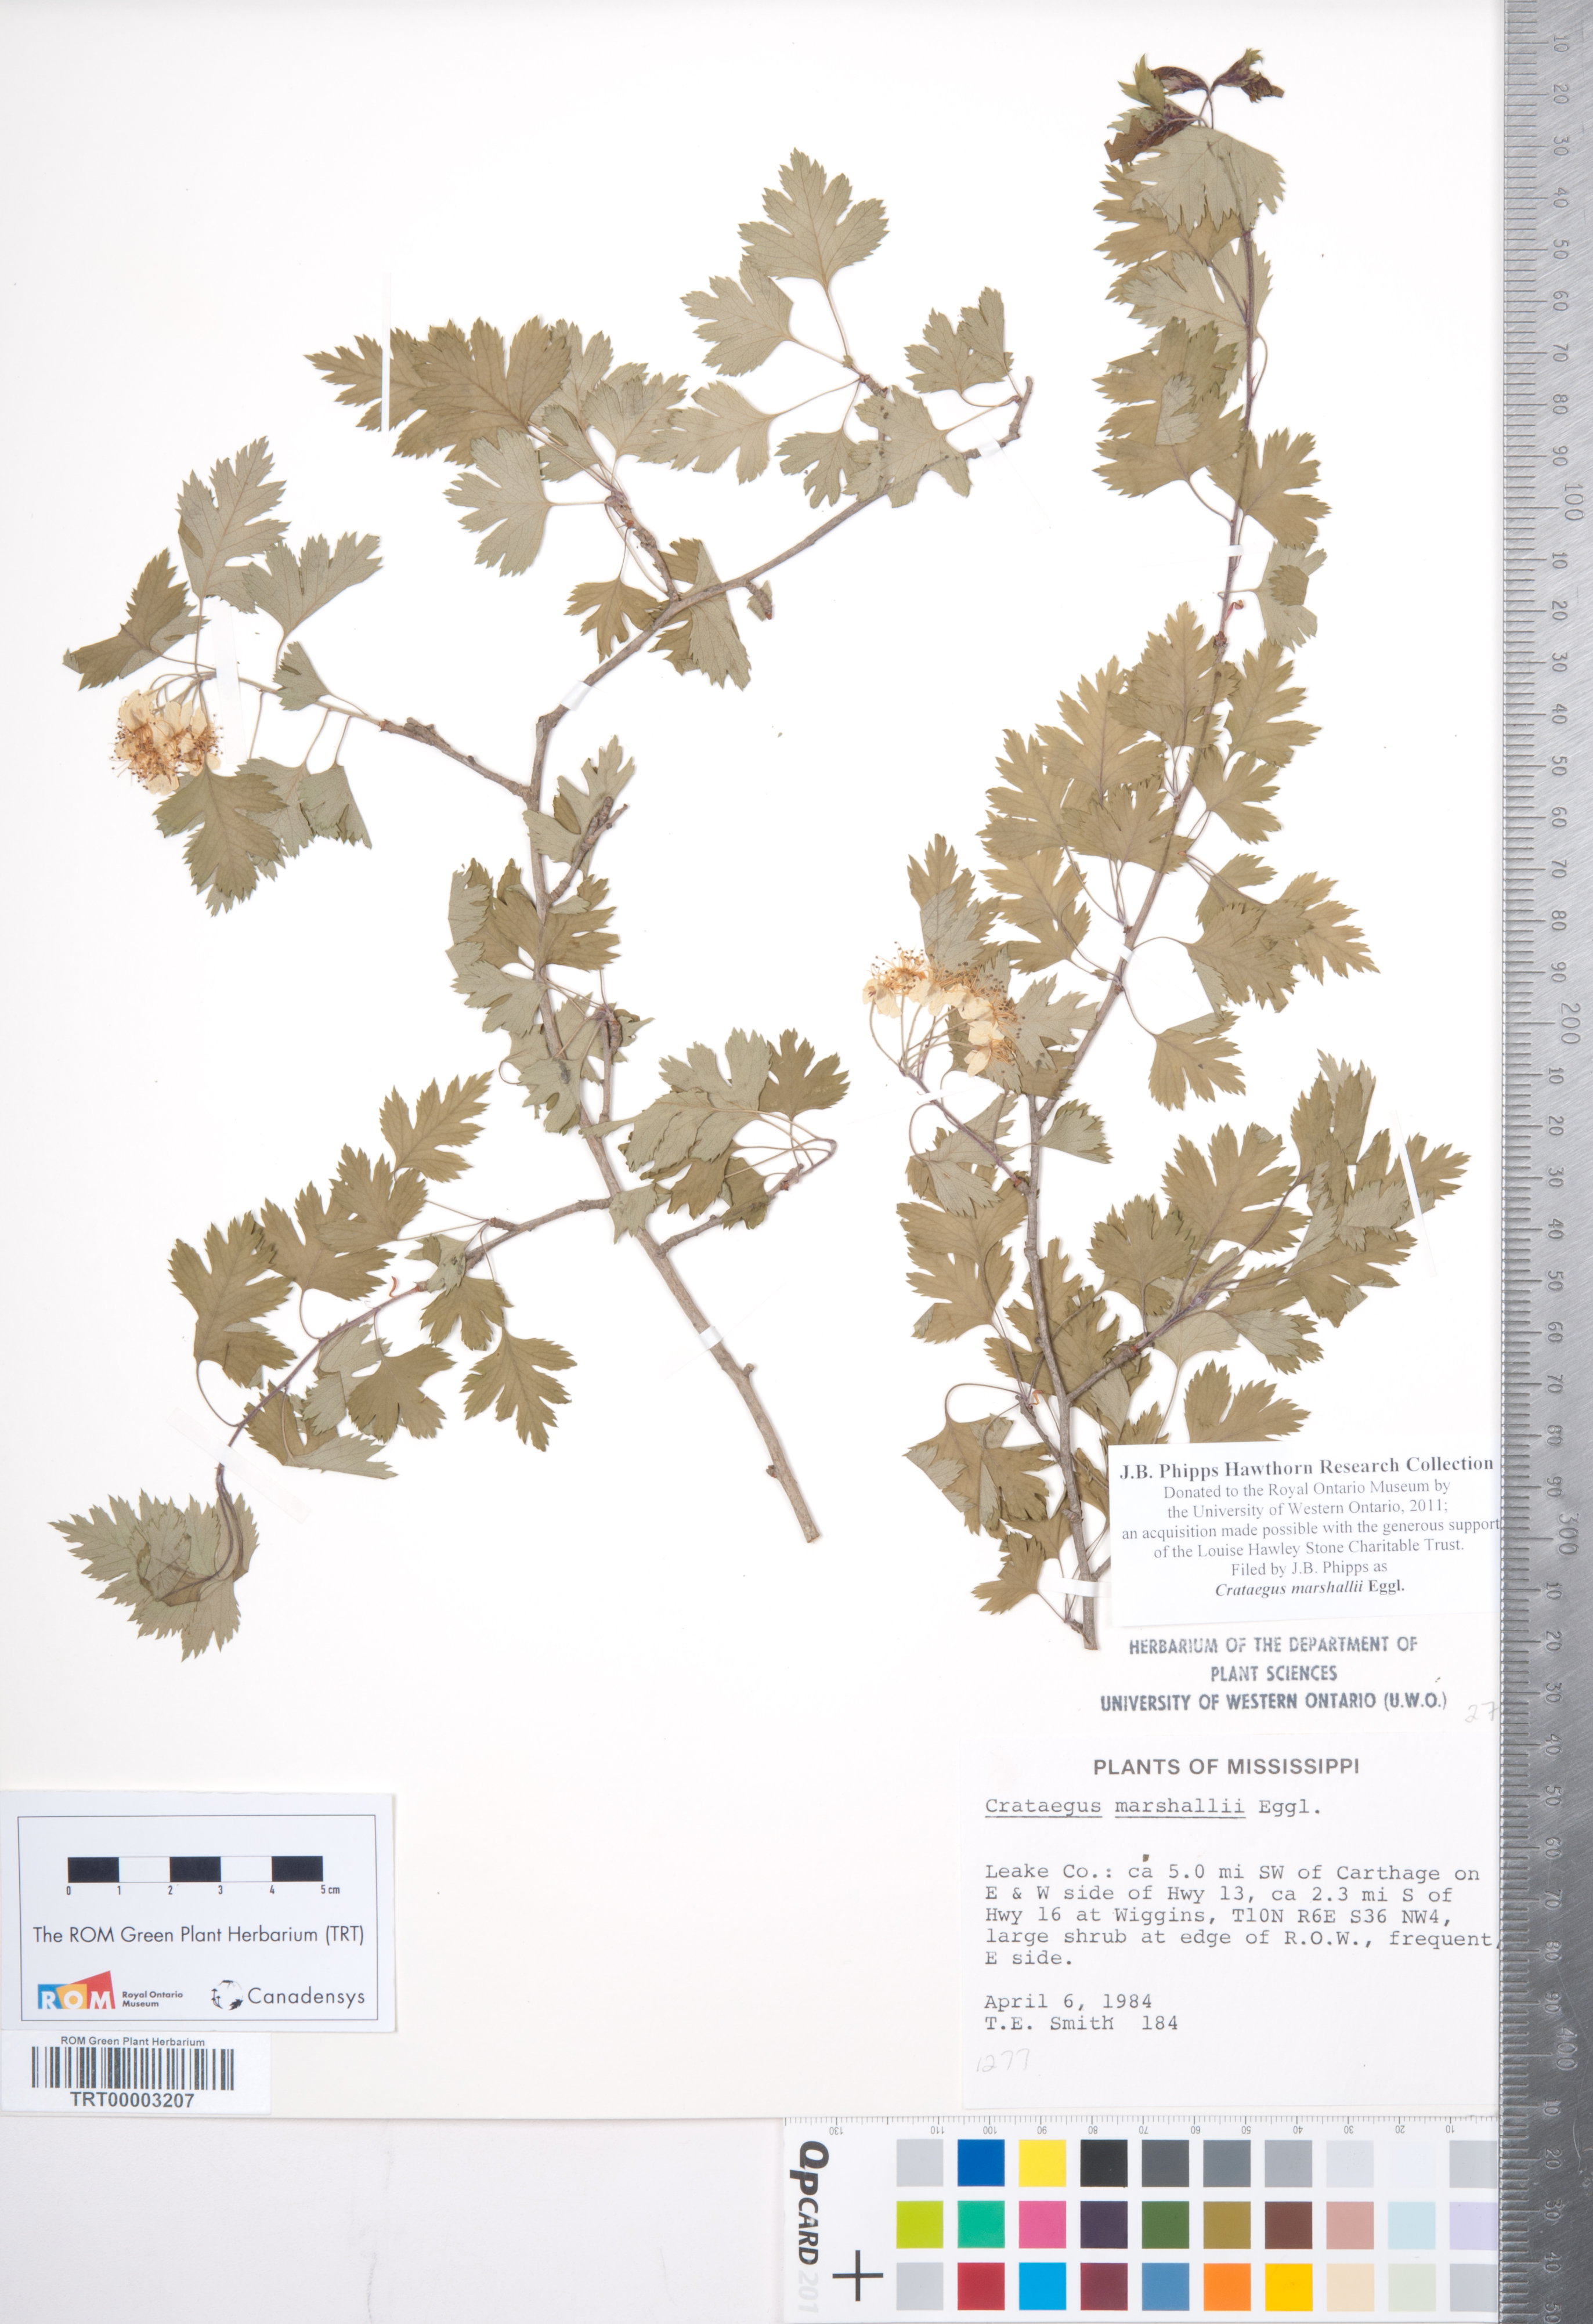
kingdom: Plantae
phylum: Tracheophyta
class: Magnoliopsida
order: Rosales
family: Rosaceae
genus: Crataegus
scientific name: Crataegus marshallii
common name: Parsley-hawthorn
